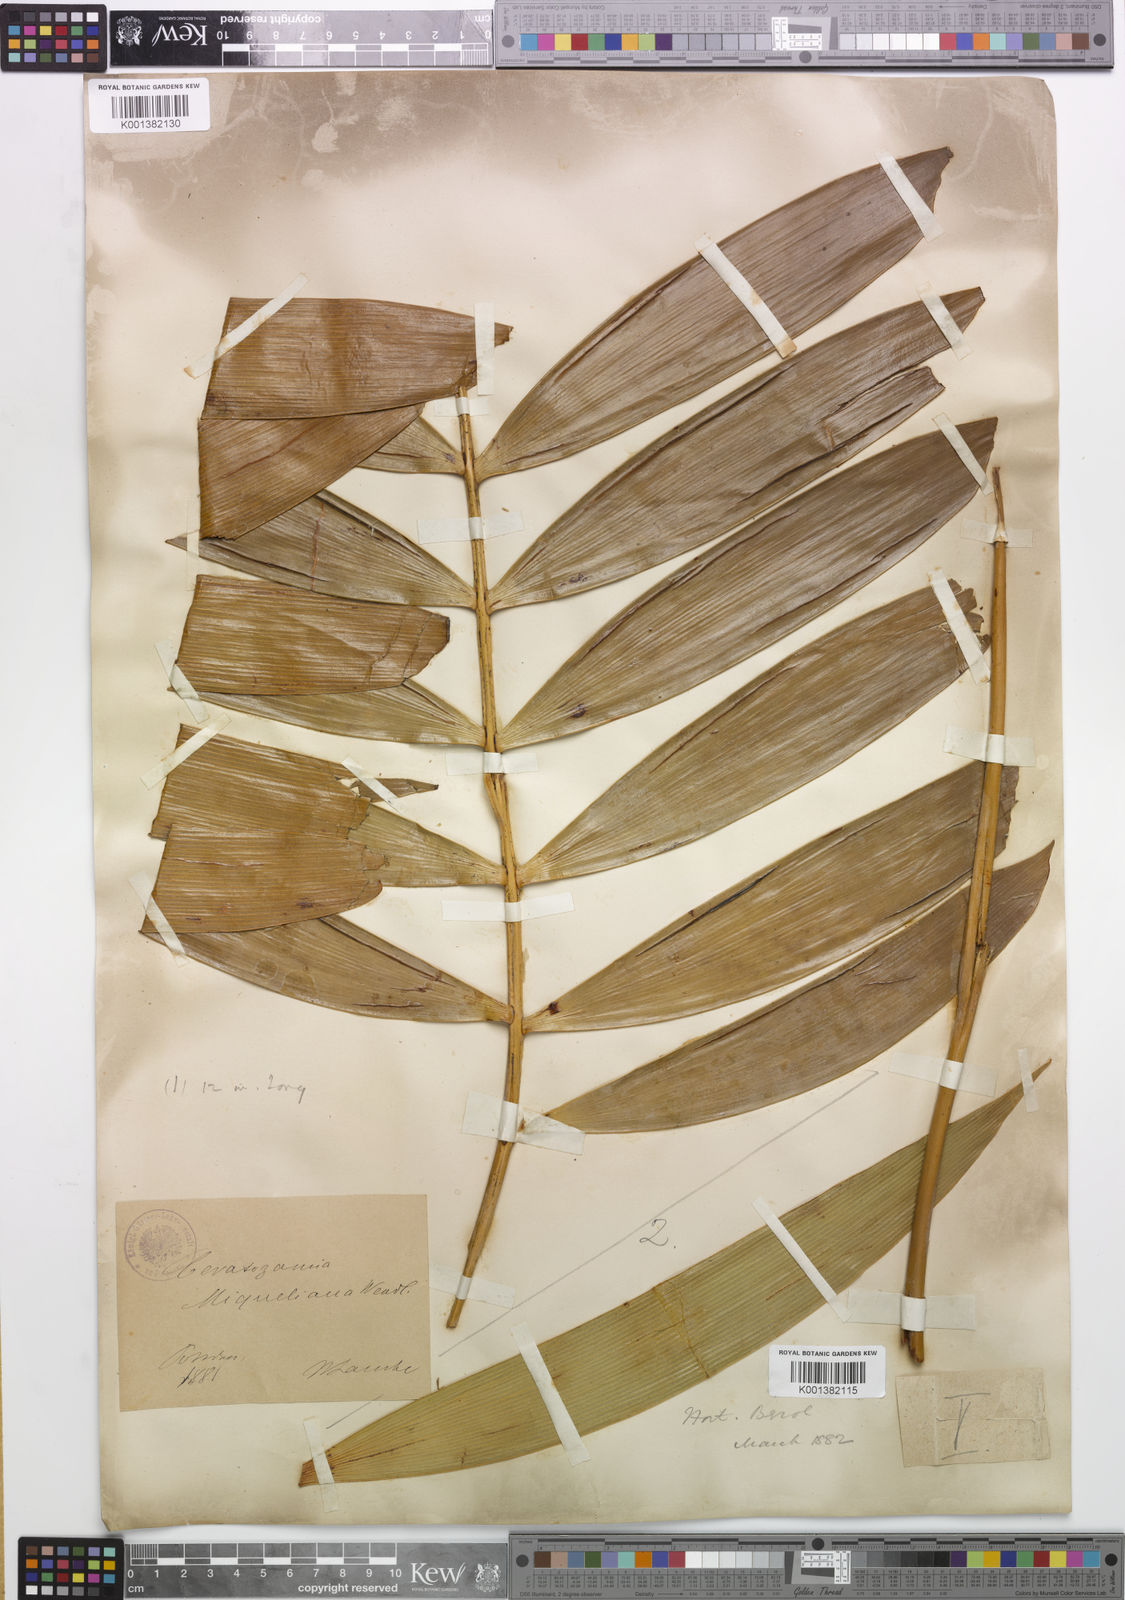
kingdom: Plantae
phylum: Tracheophyta
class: Cycadopsida
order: Cycadales
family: Zamiaceae
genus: Ceratozamia
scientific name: Ceratozamia miqueliana
